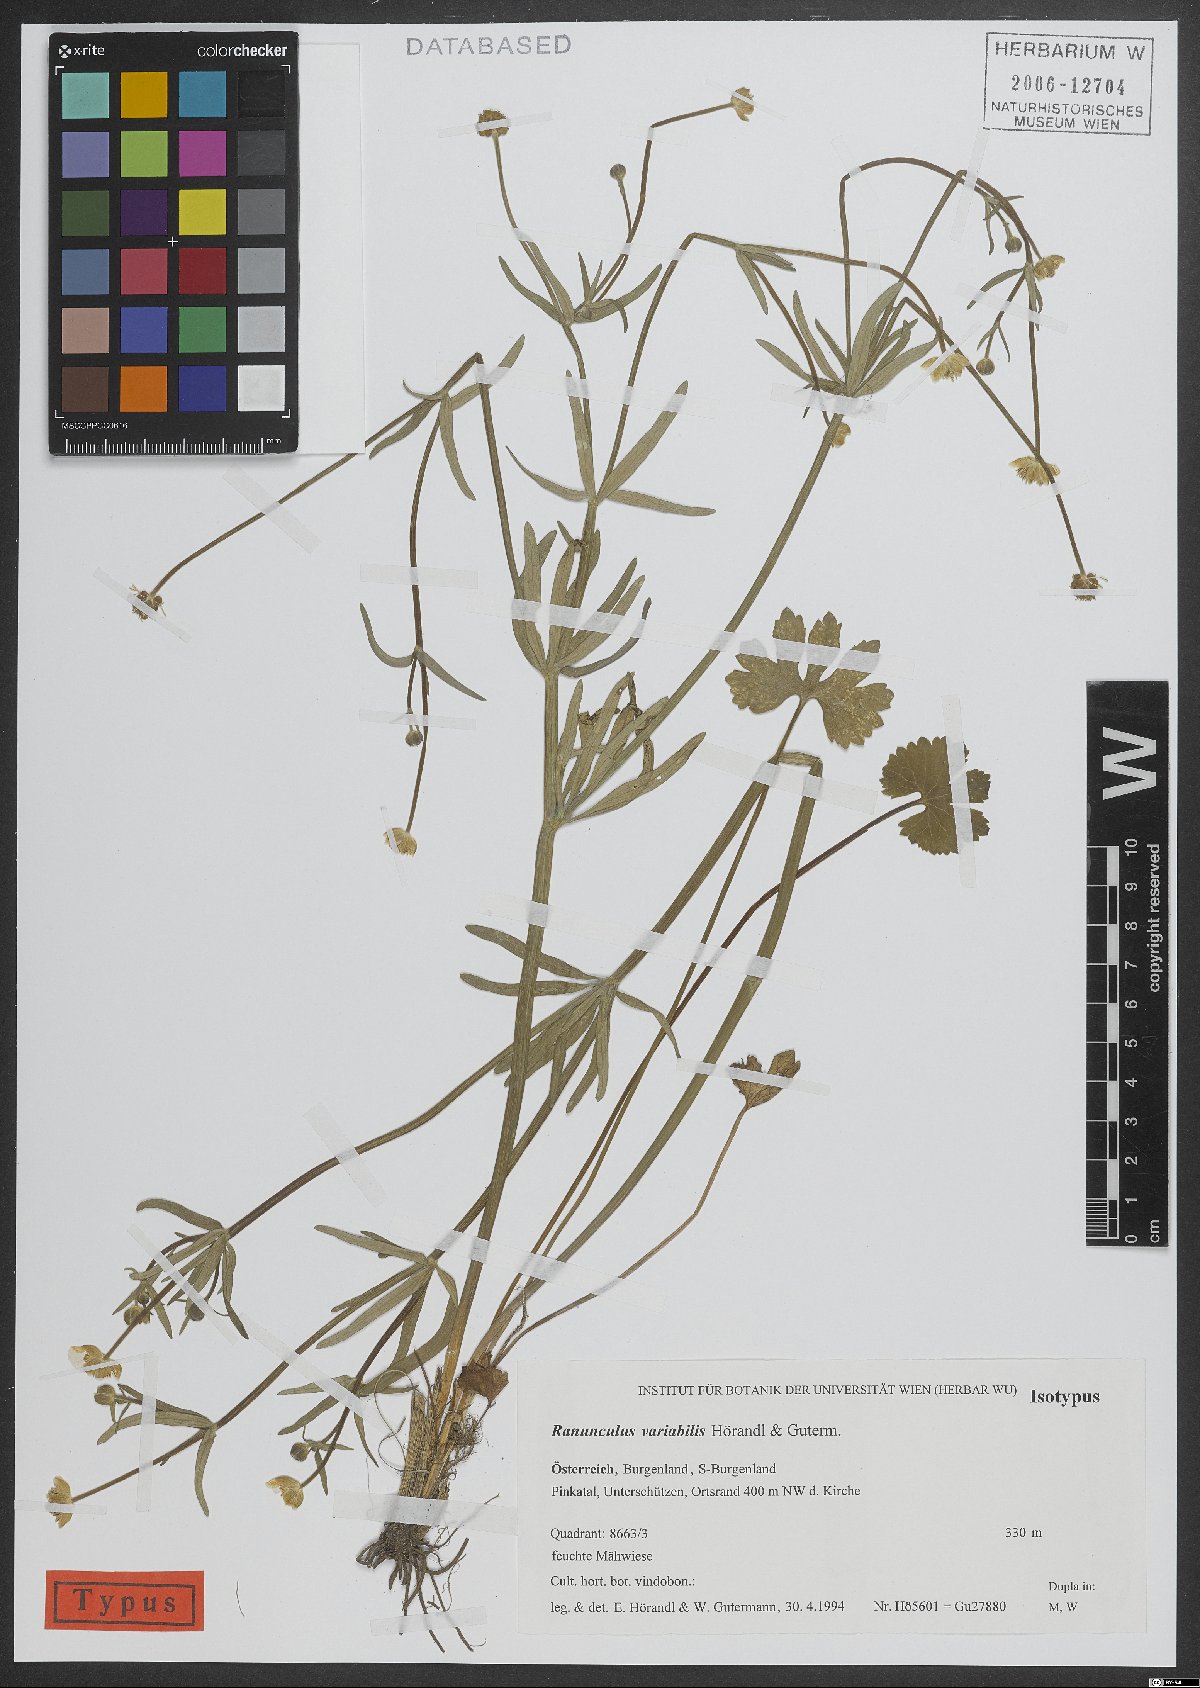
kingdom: Plantae
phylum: Tracheophyta
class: Magnoliopsida
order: Ranunculales
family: Ranunculaceae
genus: Ranunculus
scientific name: Ranunculus variabilis
